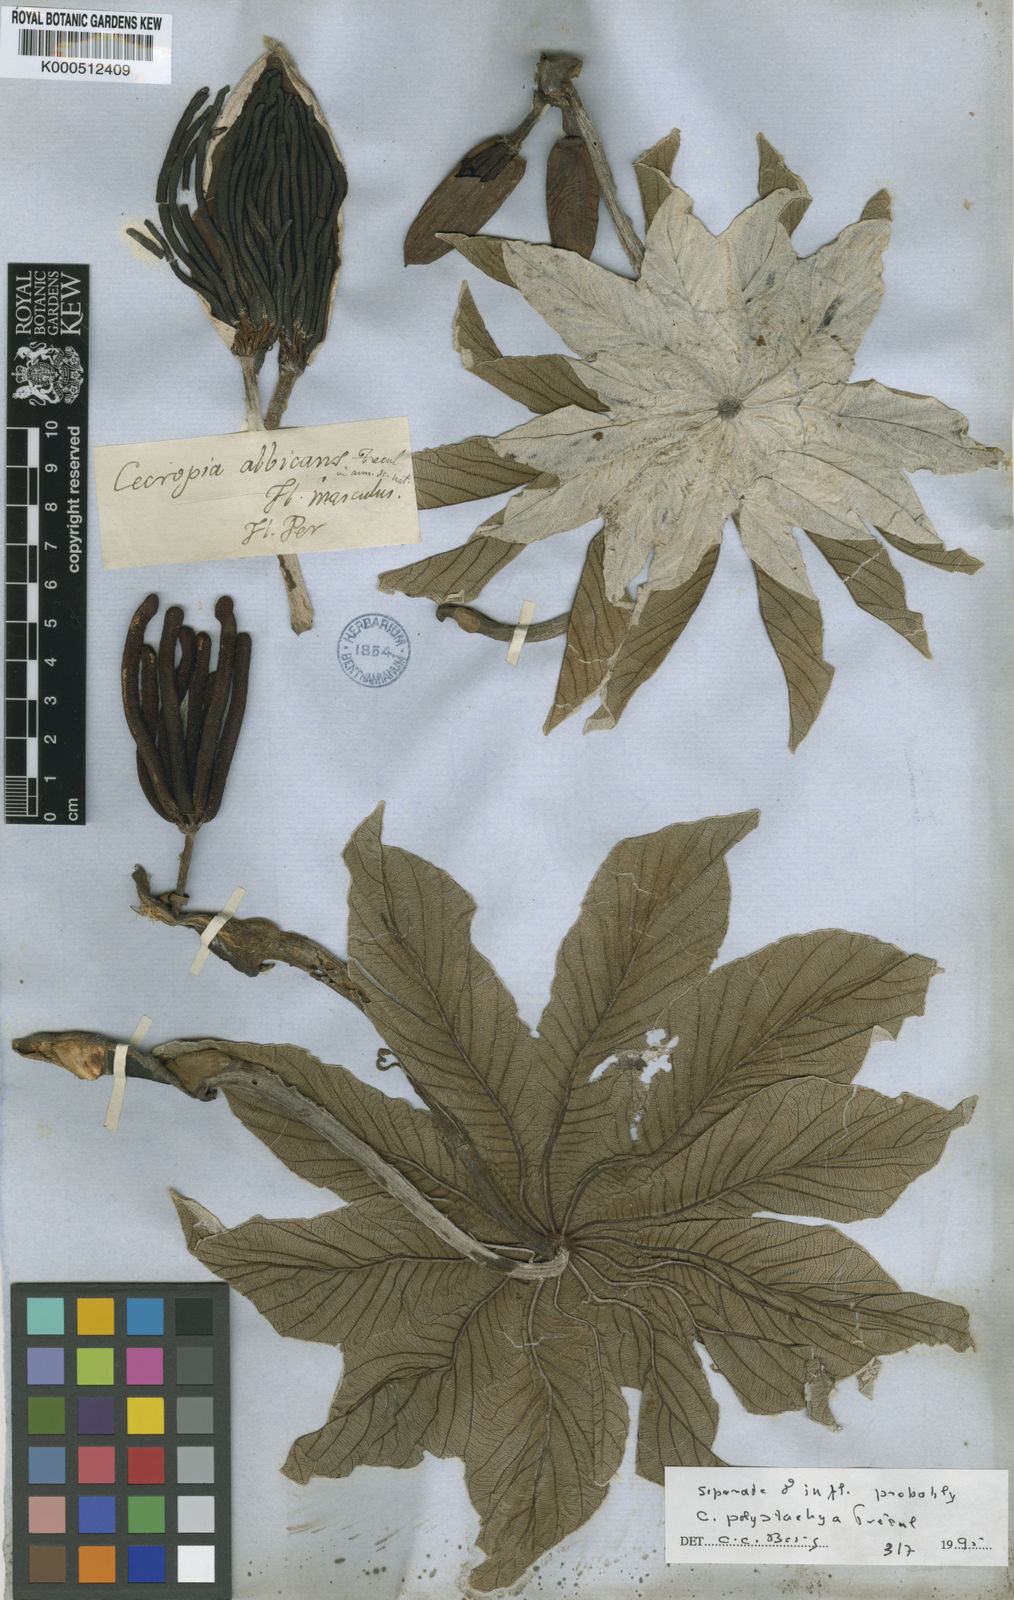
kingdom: Plantae
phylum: Tracheophyta
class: Magnoliopsida
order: Rosales
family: Urticaceae
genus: Cecropia
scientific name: Cecropia
